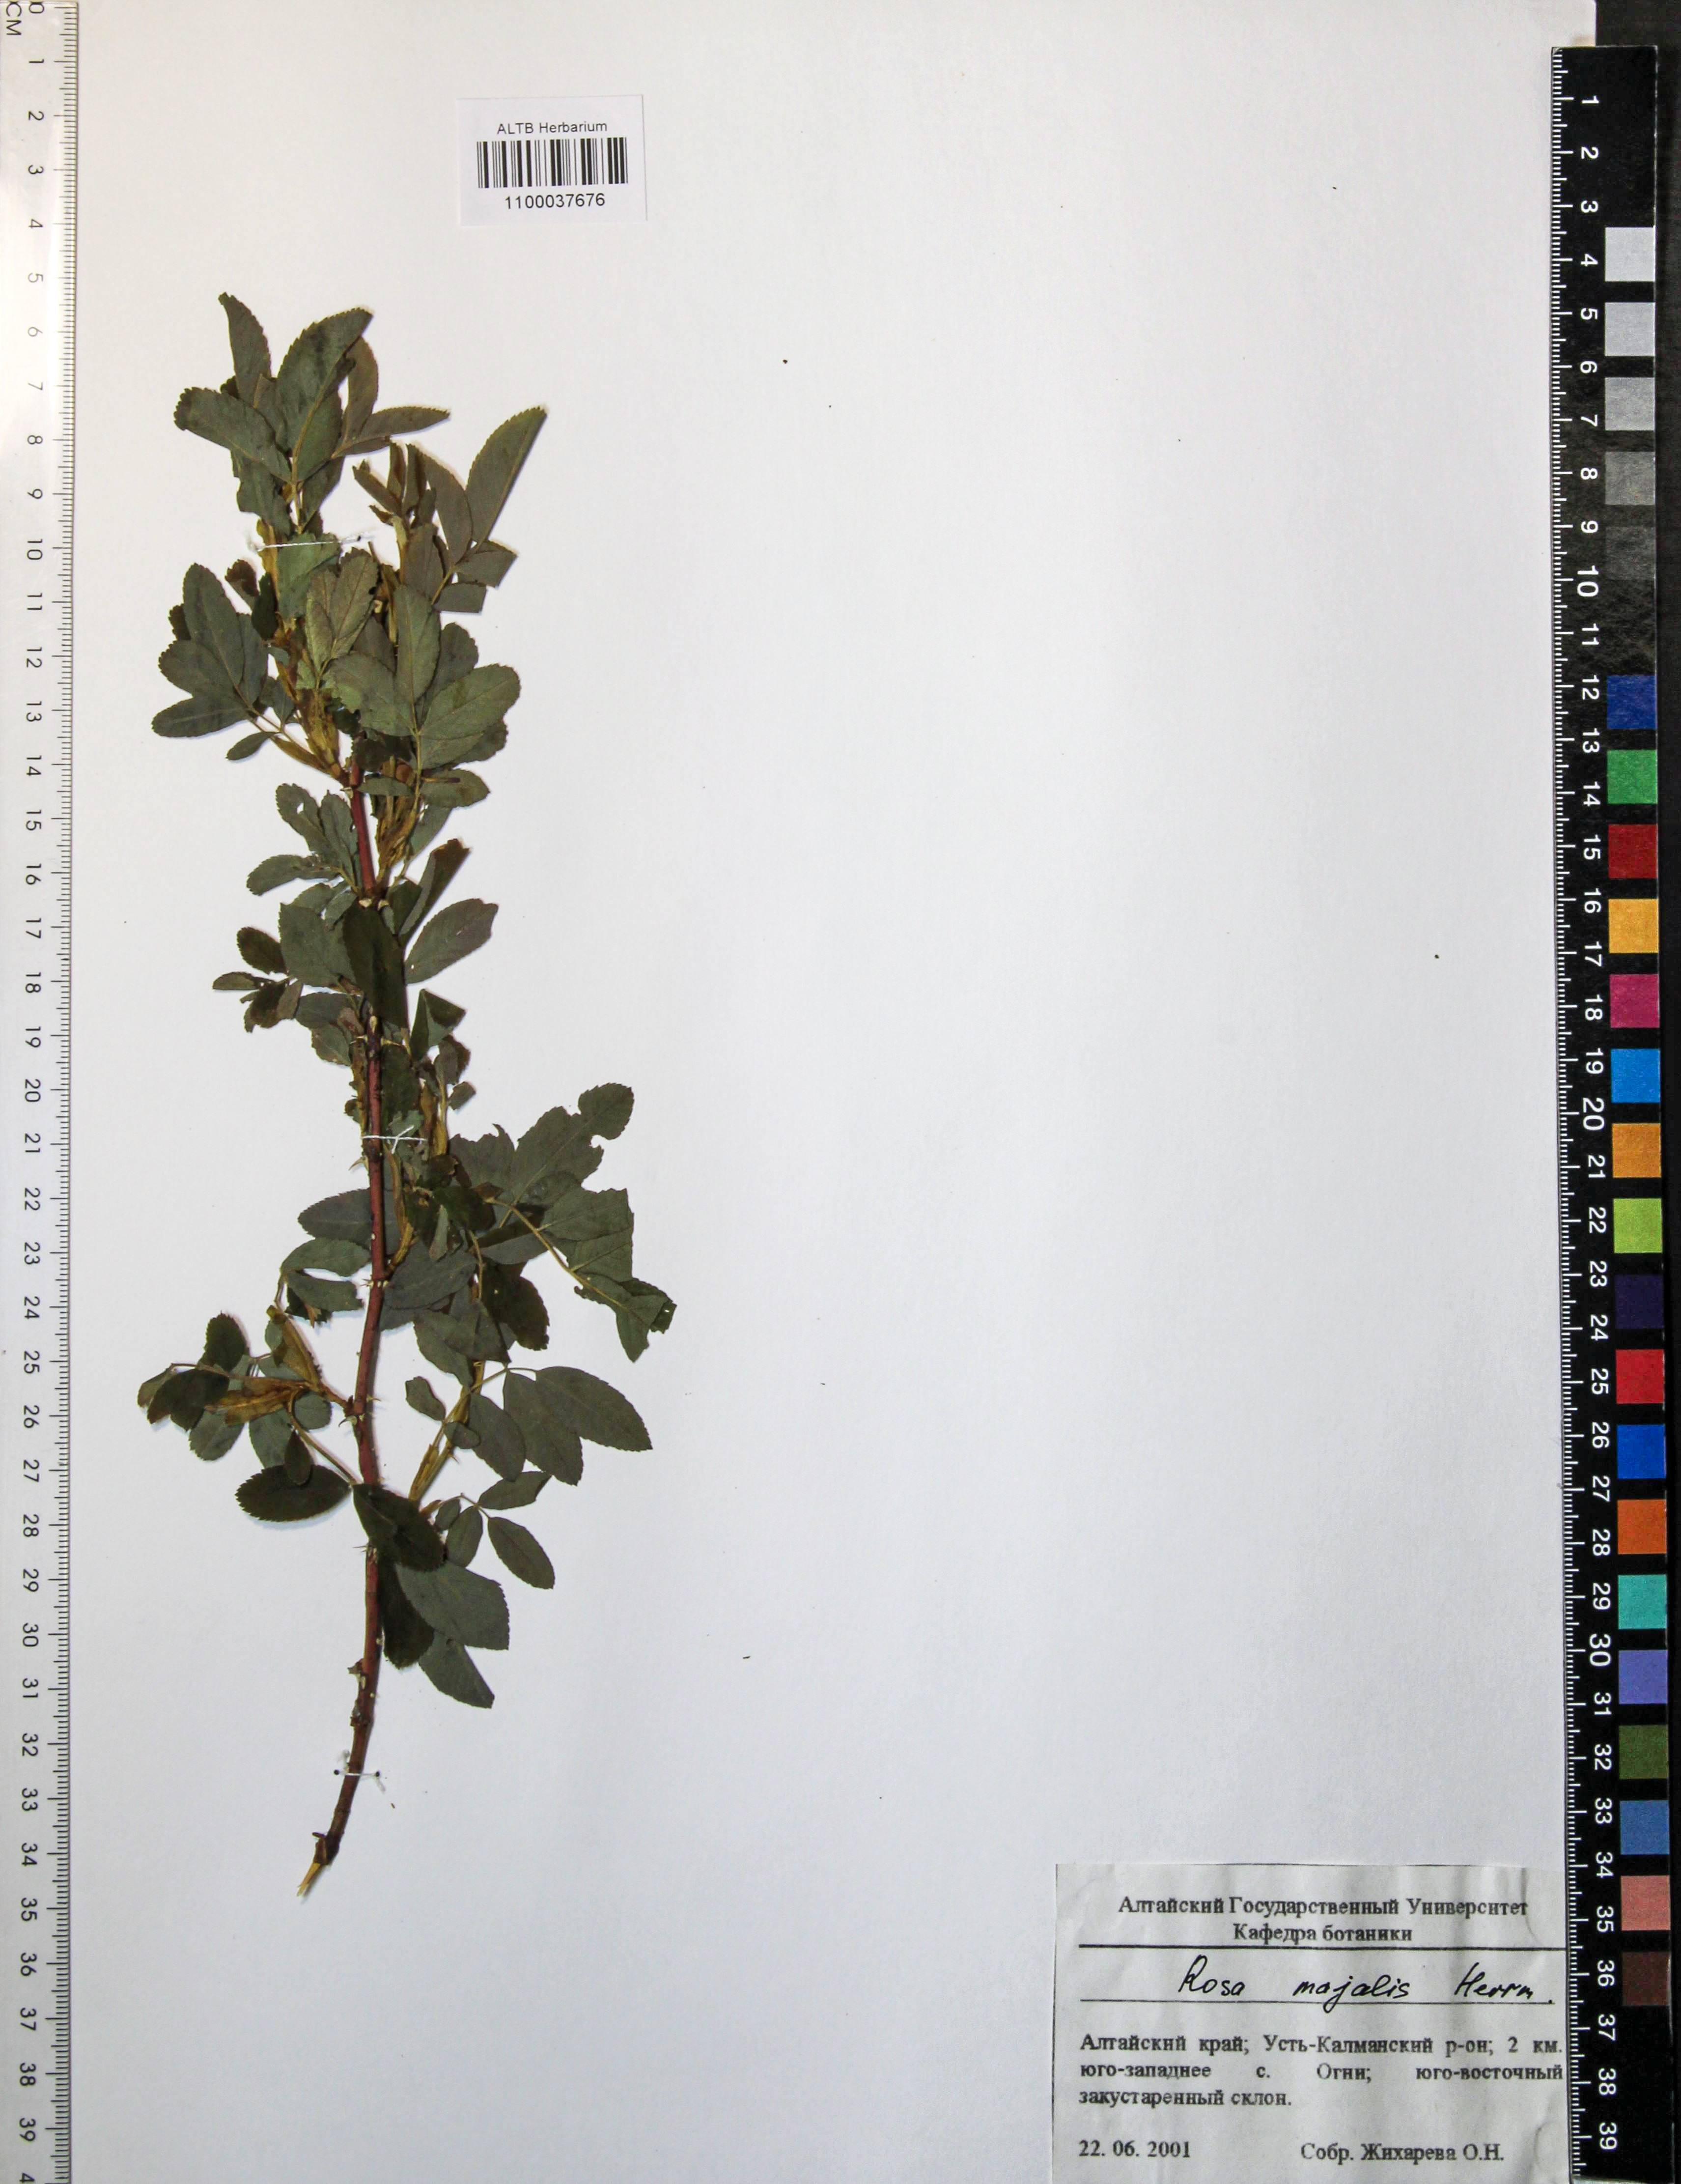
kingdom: Plantae
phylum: Tracheophyta
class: Magnoliopsida
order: Rosales
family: Rosaceae
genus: Rosa
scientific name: Rosa majalis
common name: Cinnamon rose
